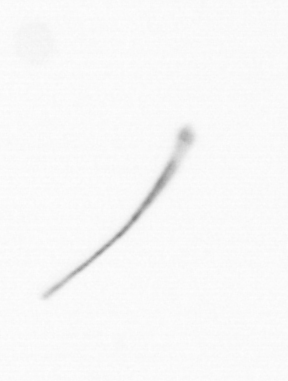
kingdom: Chromista
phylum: Ochrophyta
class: Bacillariophyceae
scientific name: Bacillariophyceae
